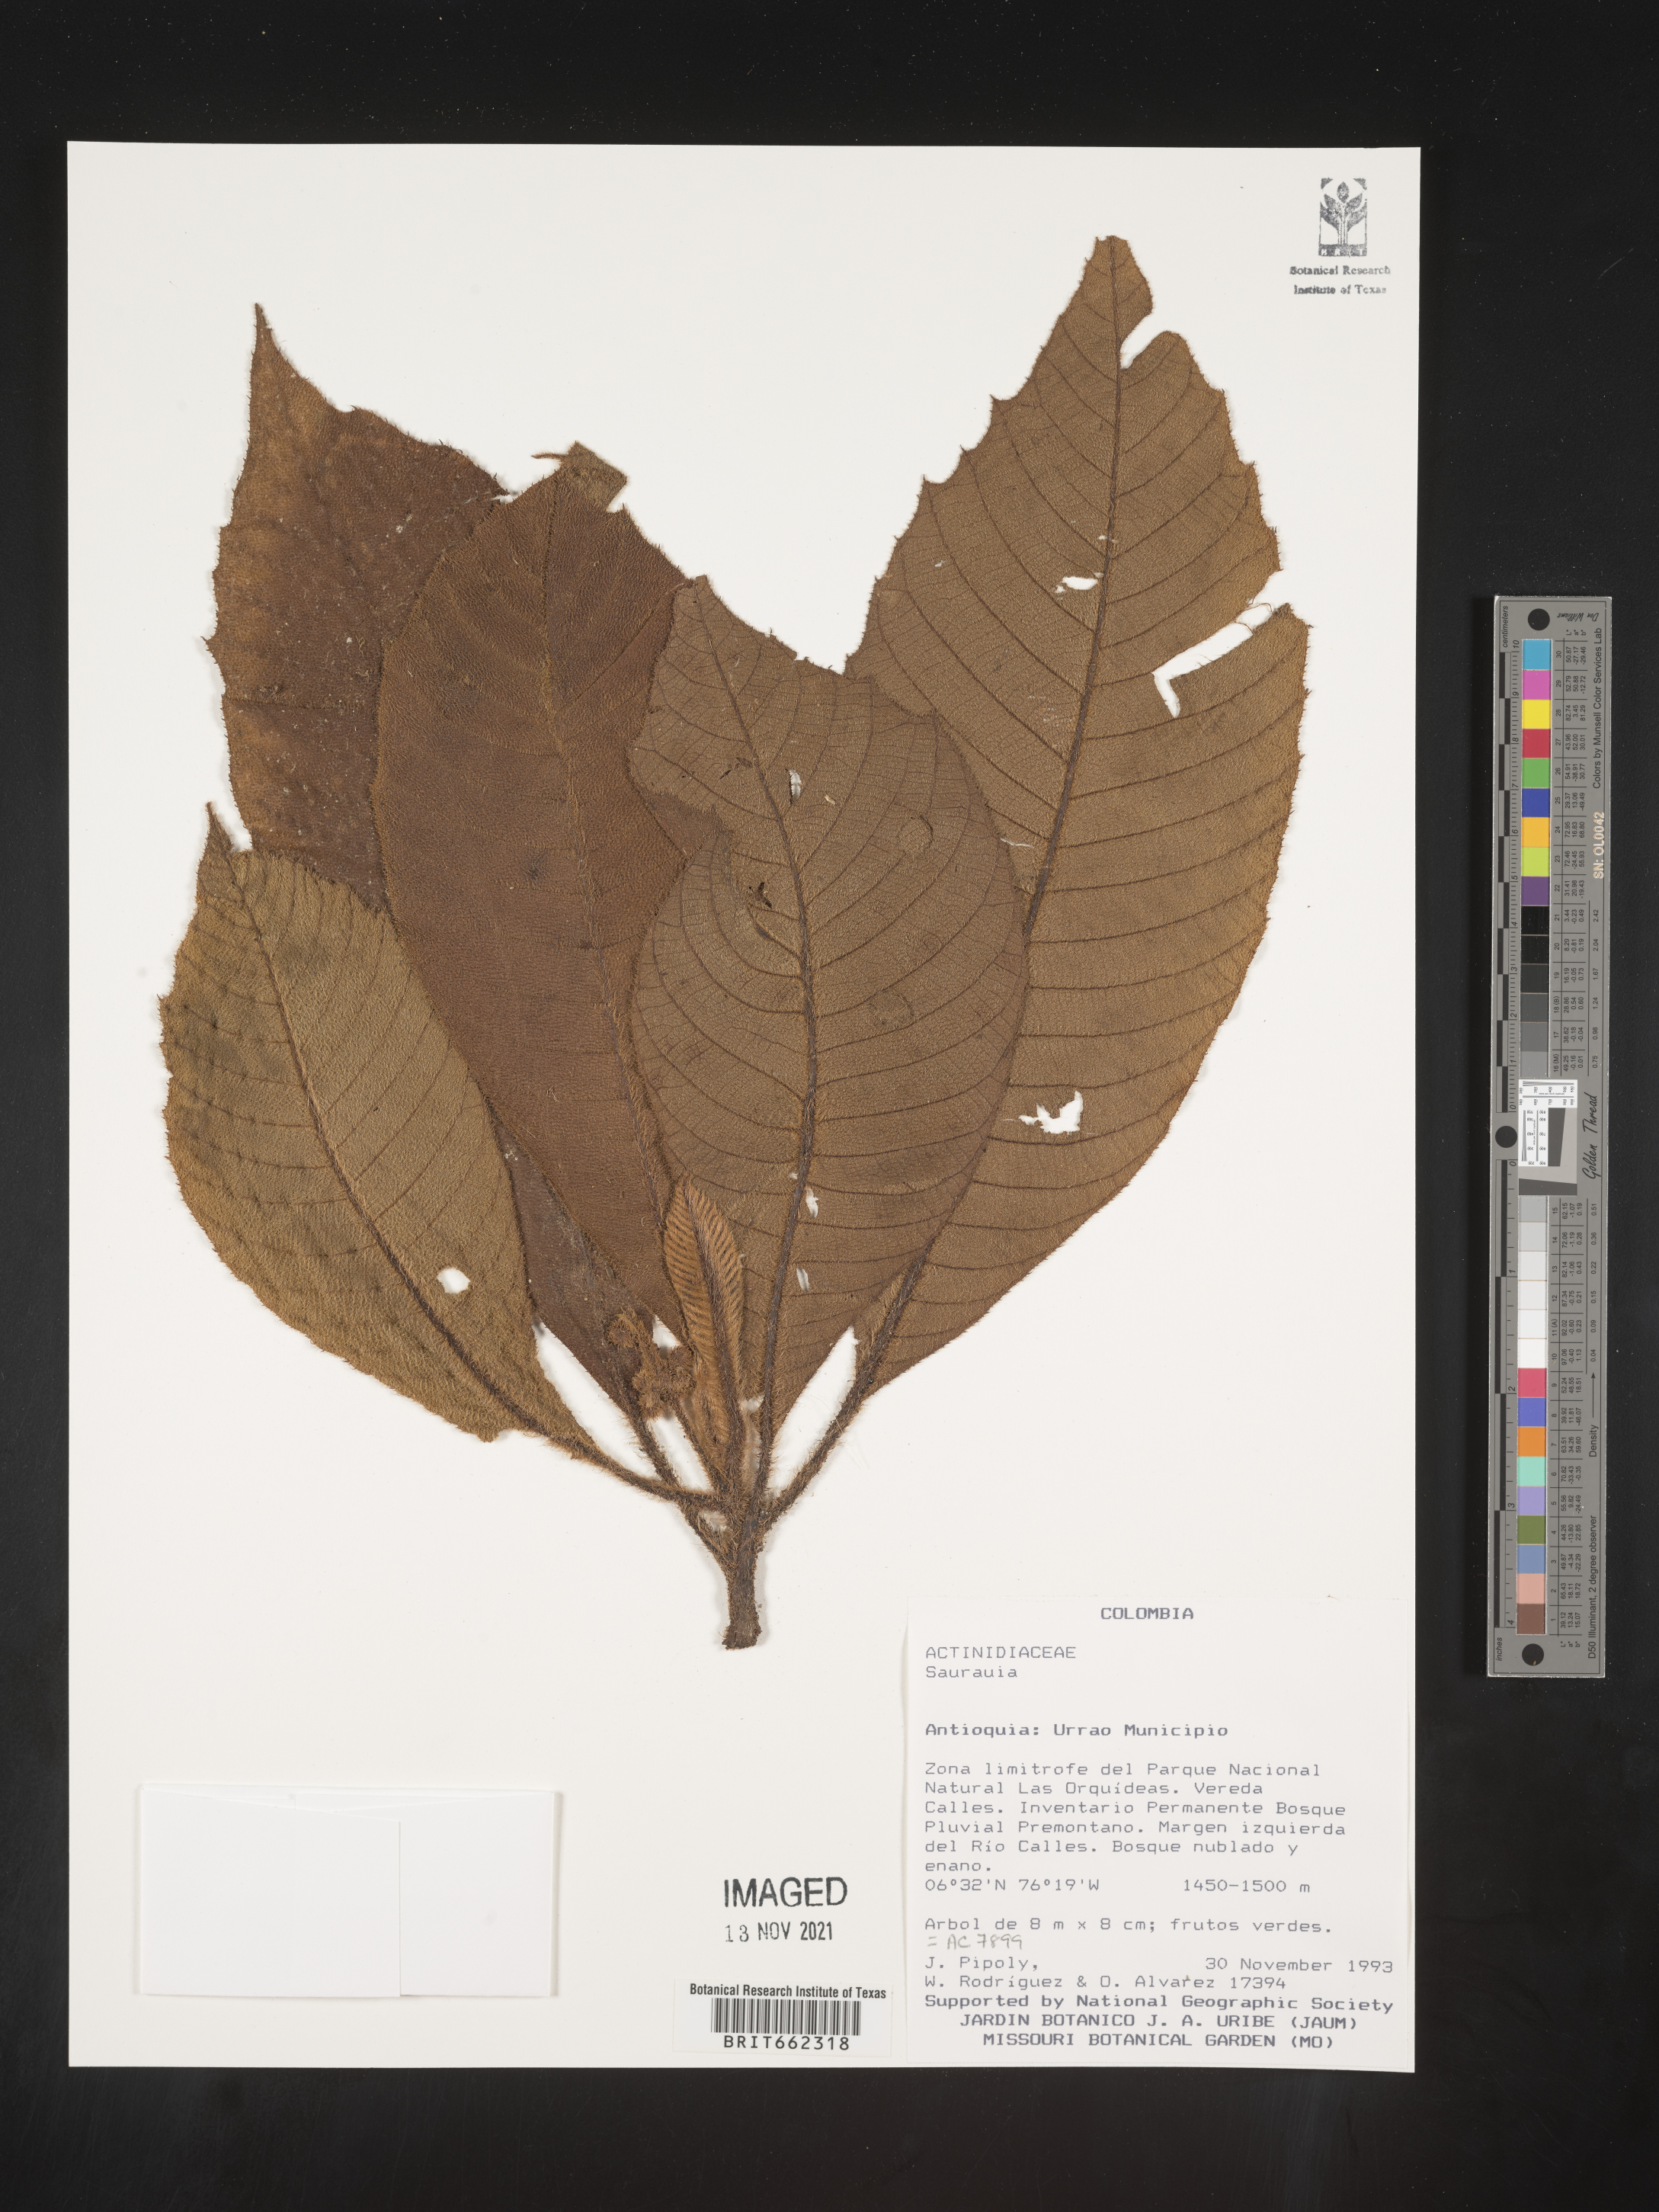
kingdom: Plantae
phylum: Tracheophyta
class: Magnoliopsida
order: Ericales
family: Actinidiaceae
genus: Saurauia
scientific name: Saurauia
